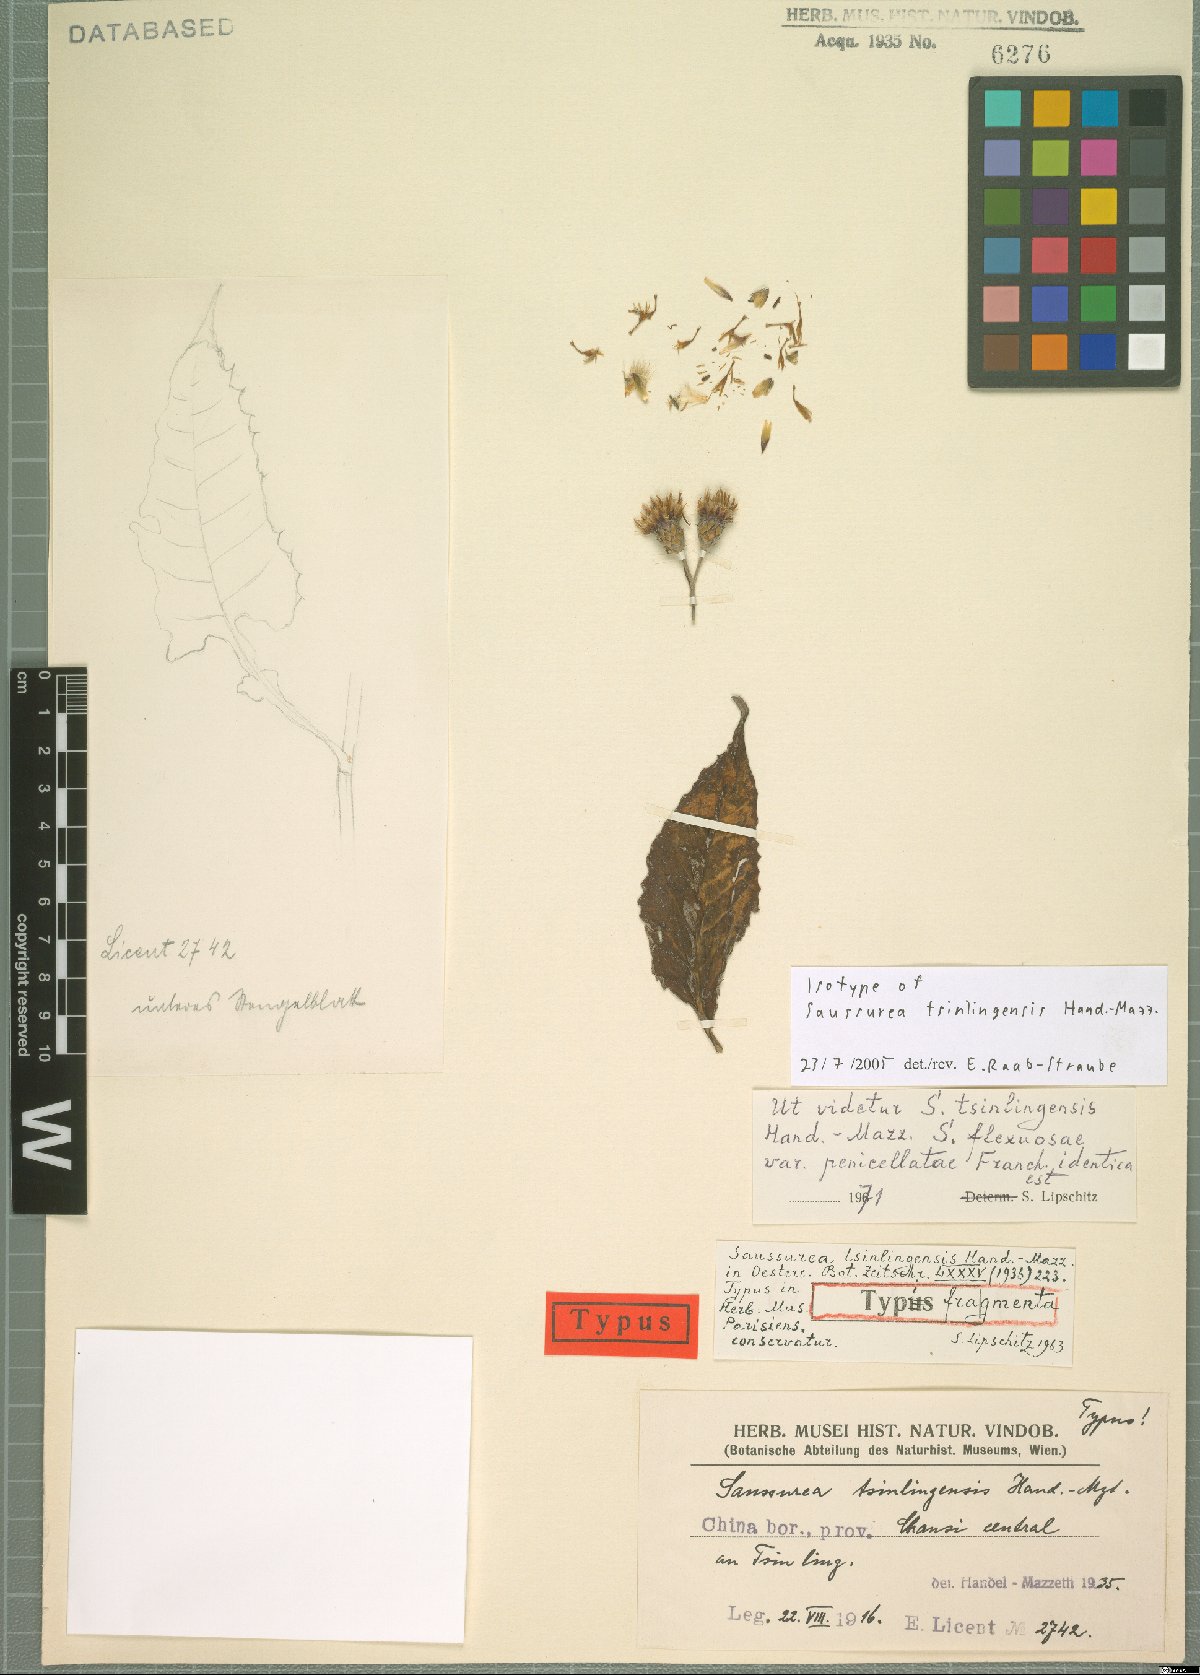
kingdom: Plantae
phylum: Tracheophyta
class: Magnoliopsida
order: Asterales
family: Asteraceae
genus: Saussurea
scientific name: Saussurea flexuosa
